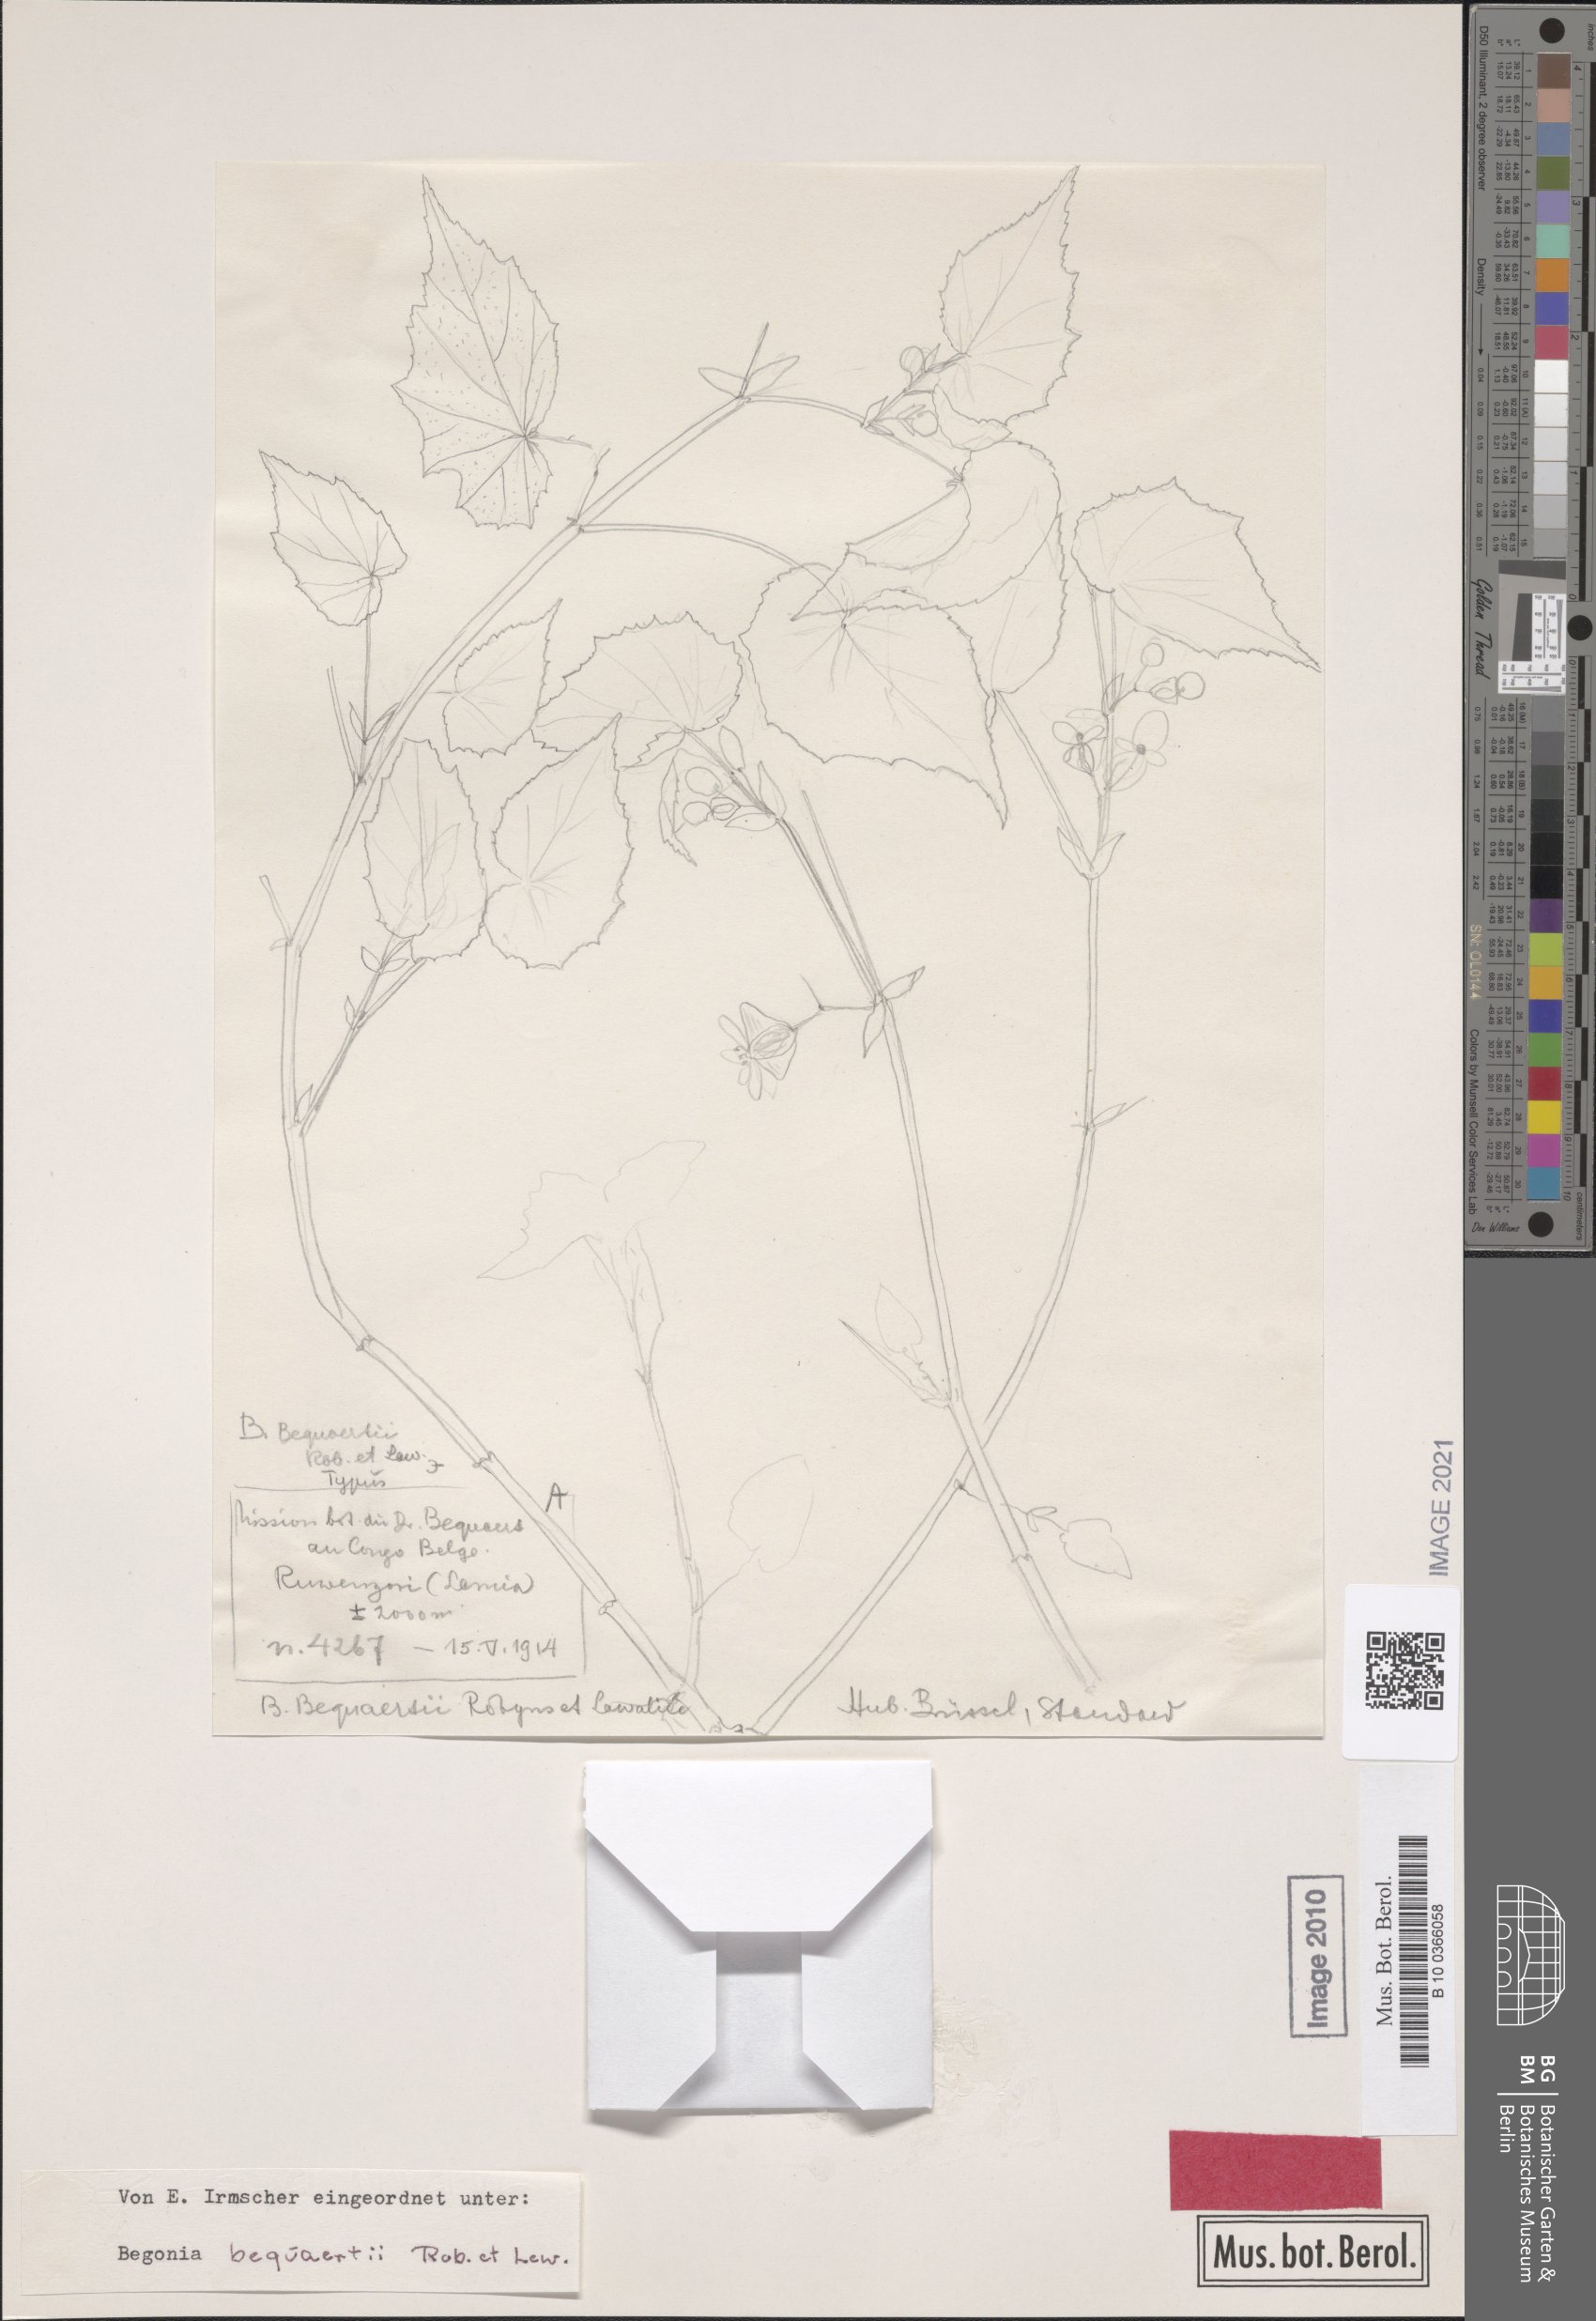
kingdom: Plantae
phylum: Tracheophyta
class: Magnoliopsida
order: Cucurbitales
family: Begoniaceae
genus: Begonia
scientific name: Begonia bequaertii
